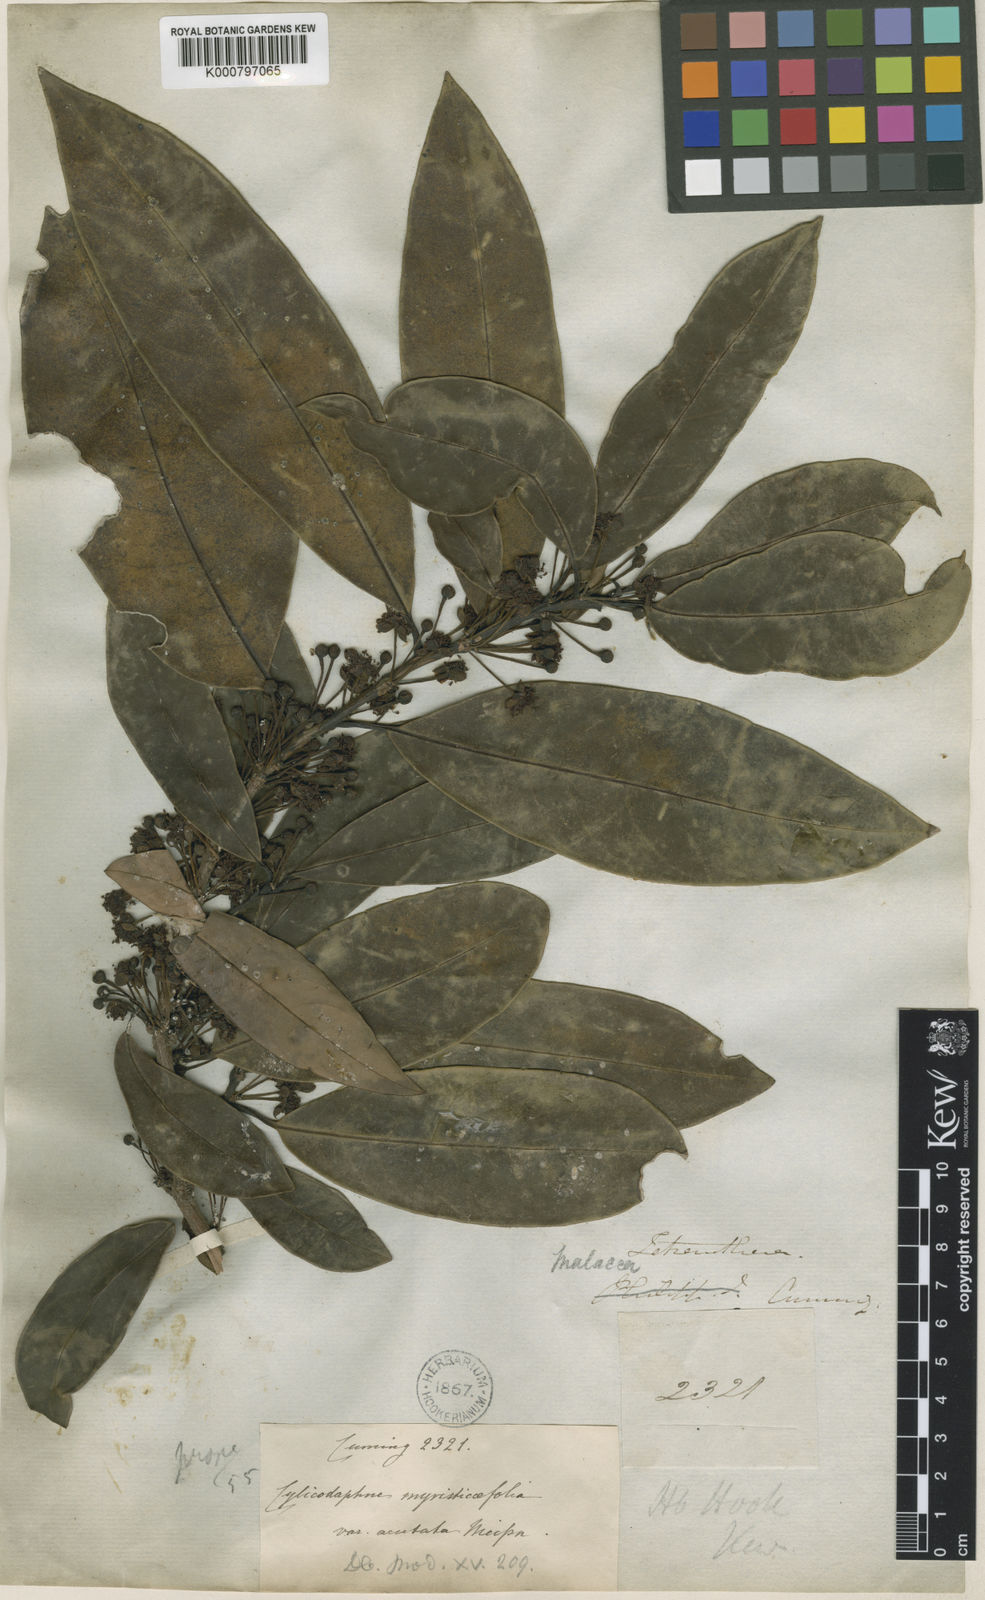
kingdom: Plantae
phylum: Tracheophyta
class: Magnoliopsida
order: Laurales
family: Lauraceae
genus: Litsea
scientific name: Litsea myristicifolia
